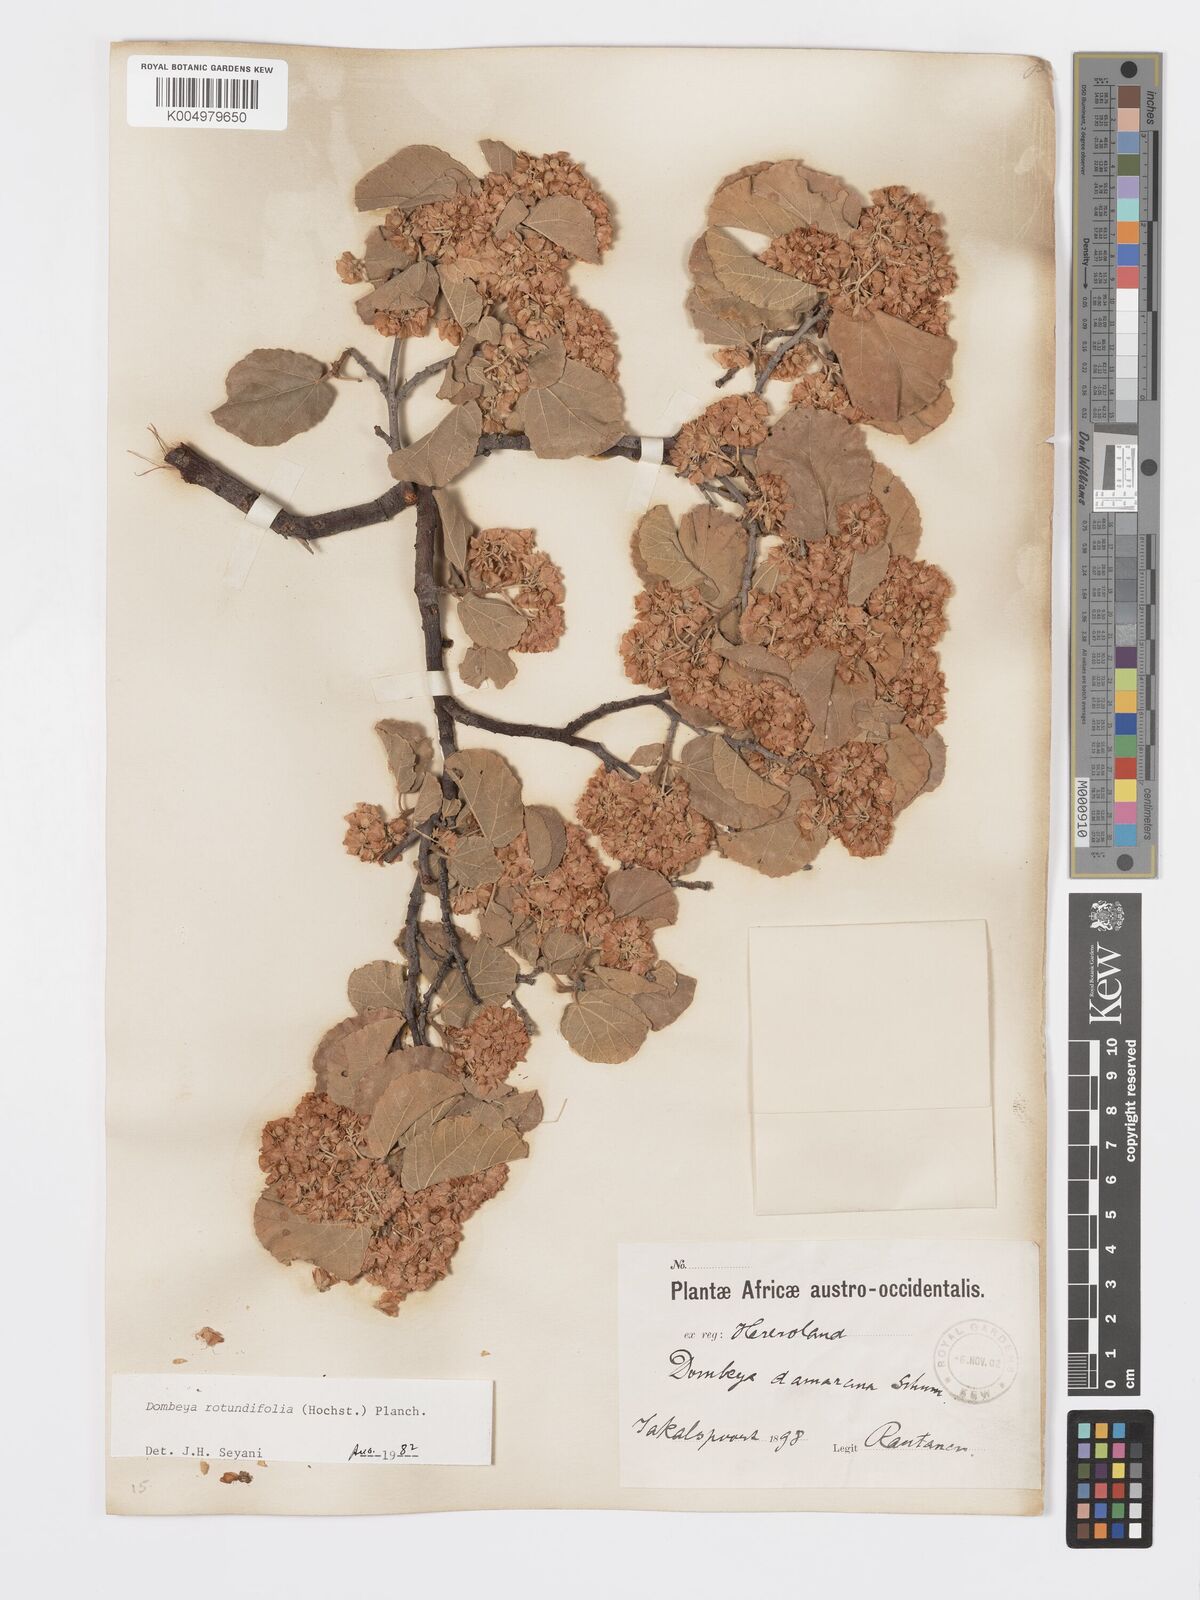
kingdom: Plantae
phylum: Tracheophyta
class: Magnoliopsida
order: Malvales
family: Malvaceae
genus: Dombeya
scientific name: Dombeya rotundifolia
